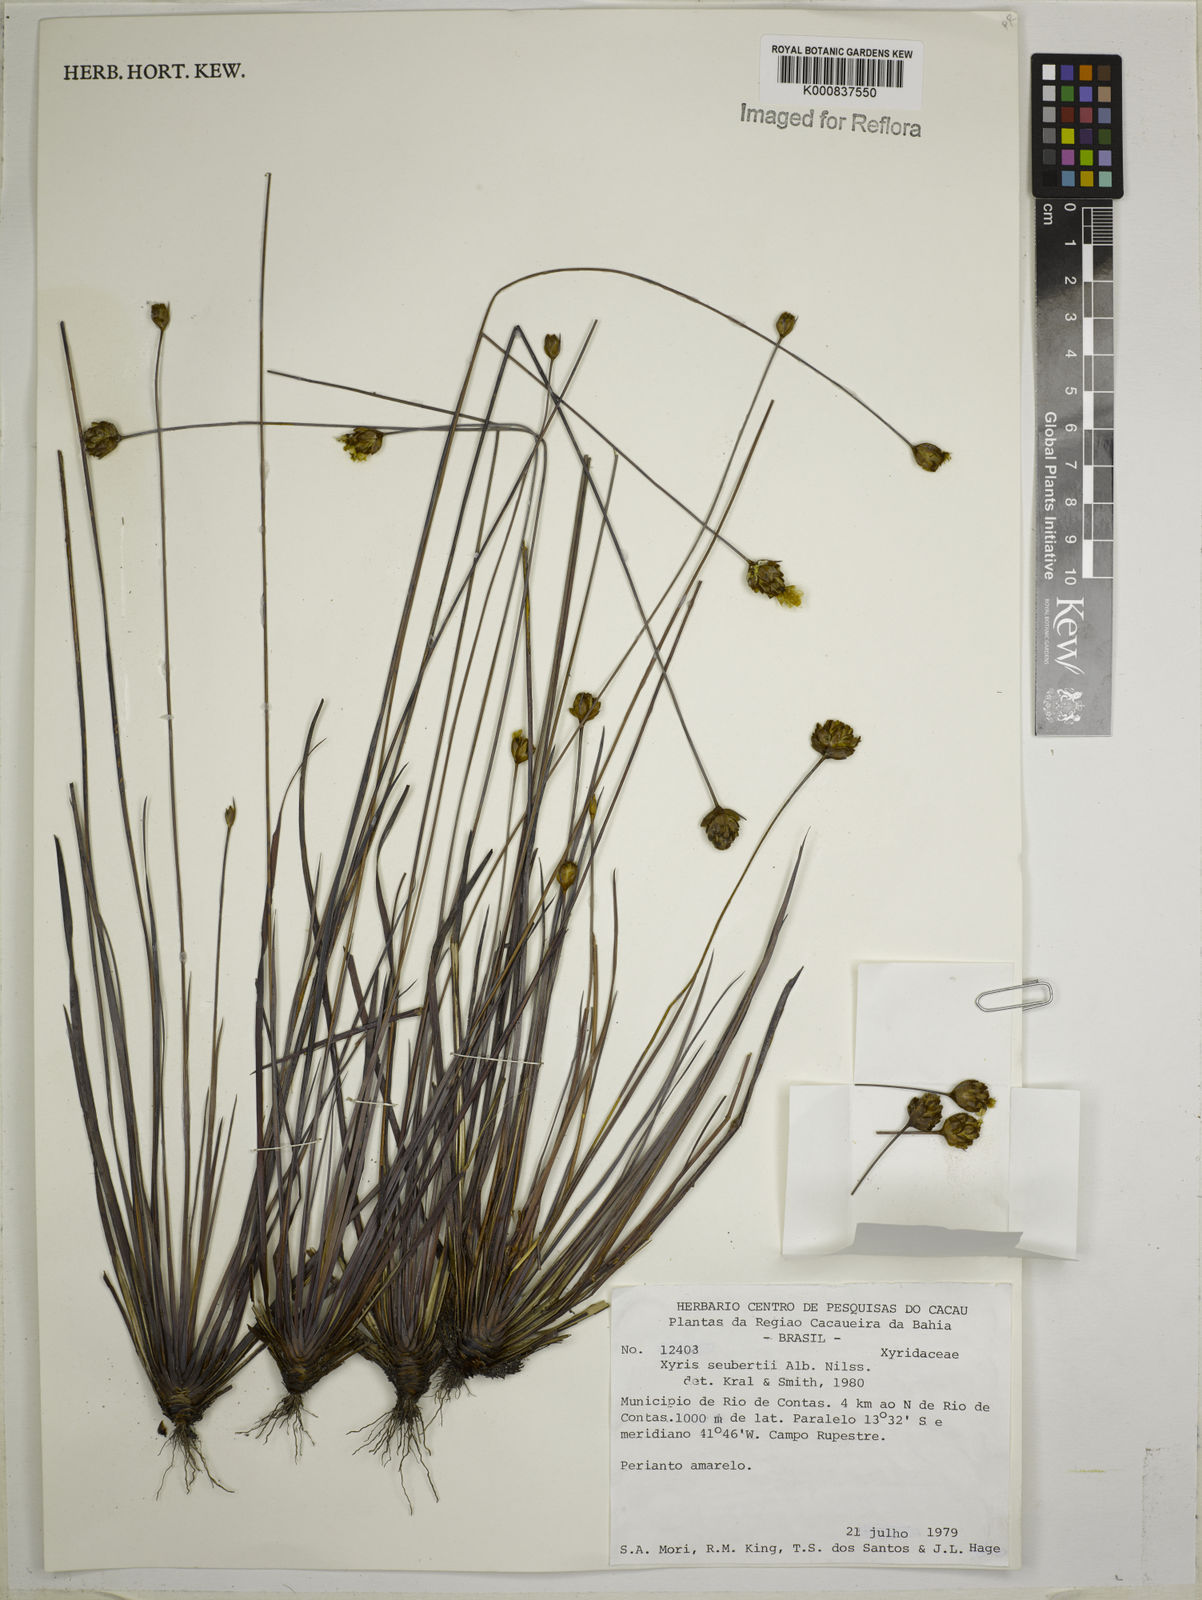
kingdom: Plantae
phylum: Tracheophyta
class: Liliopsida
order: Poales
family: Xyridaceae
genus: Xyris
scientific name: Xyris seubertii
